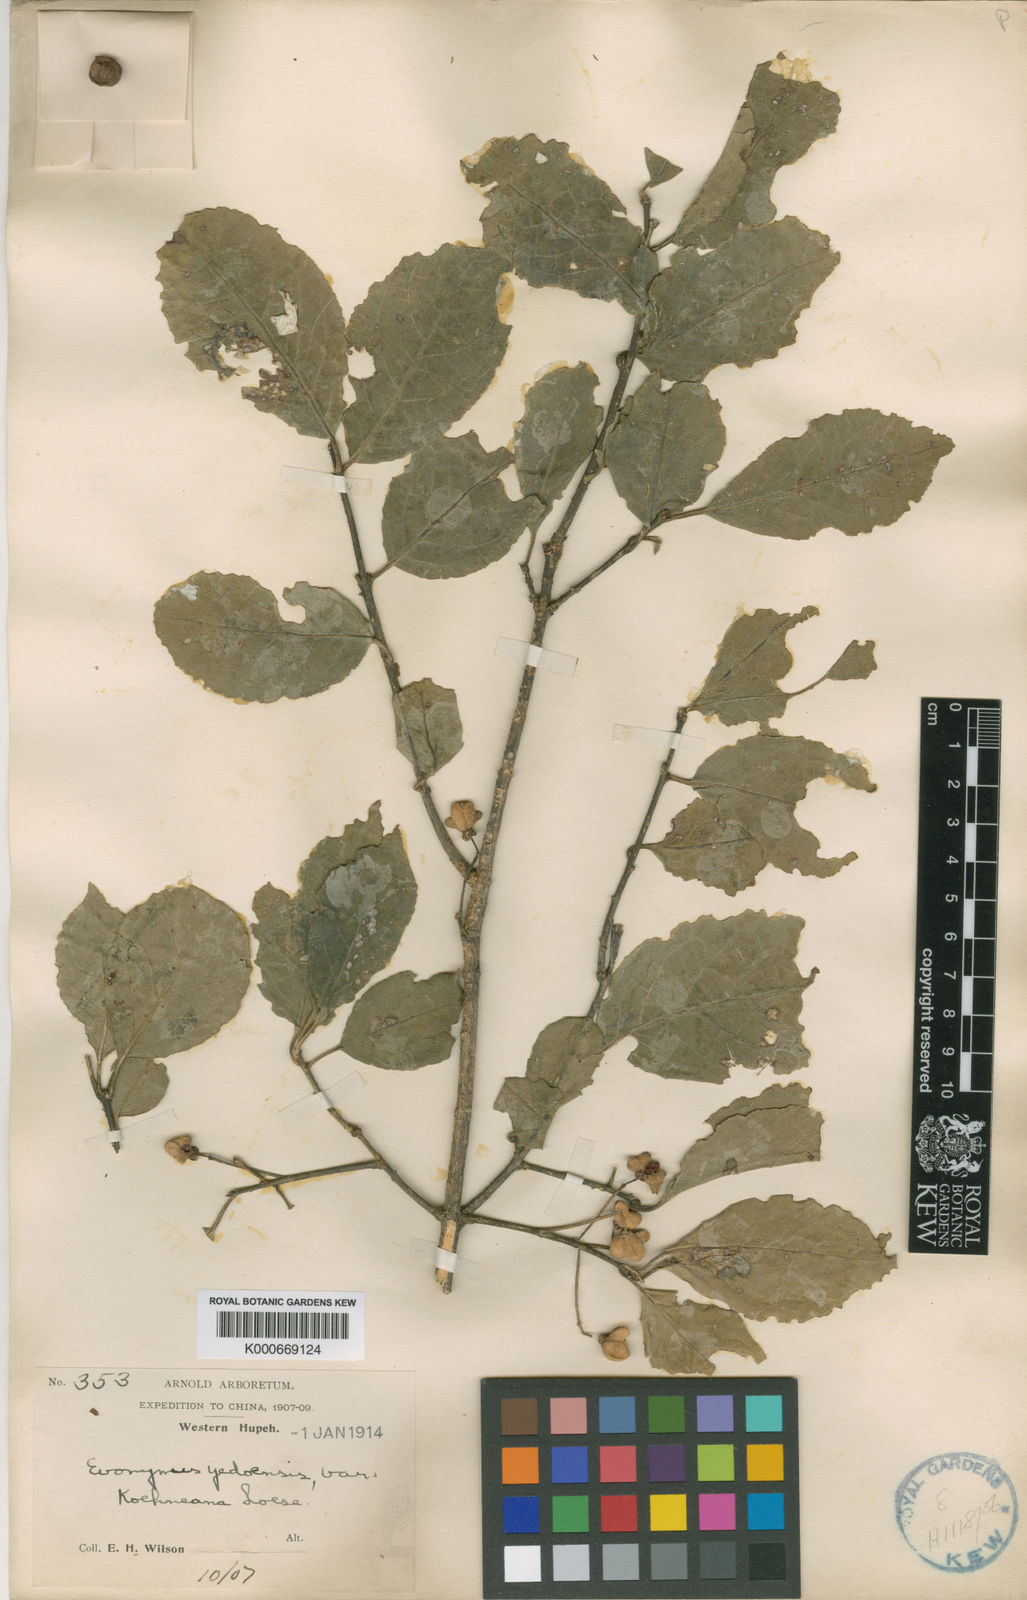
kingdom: Plantae
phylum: Tracheophyta
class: Magnoliopsida
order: Celastrales
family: Celastraceae
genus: Euonymus
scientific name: Euonymus hamiltonianus
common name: Hamilton's spindletree
